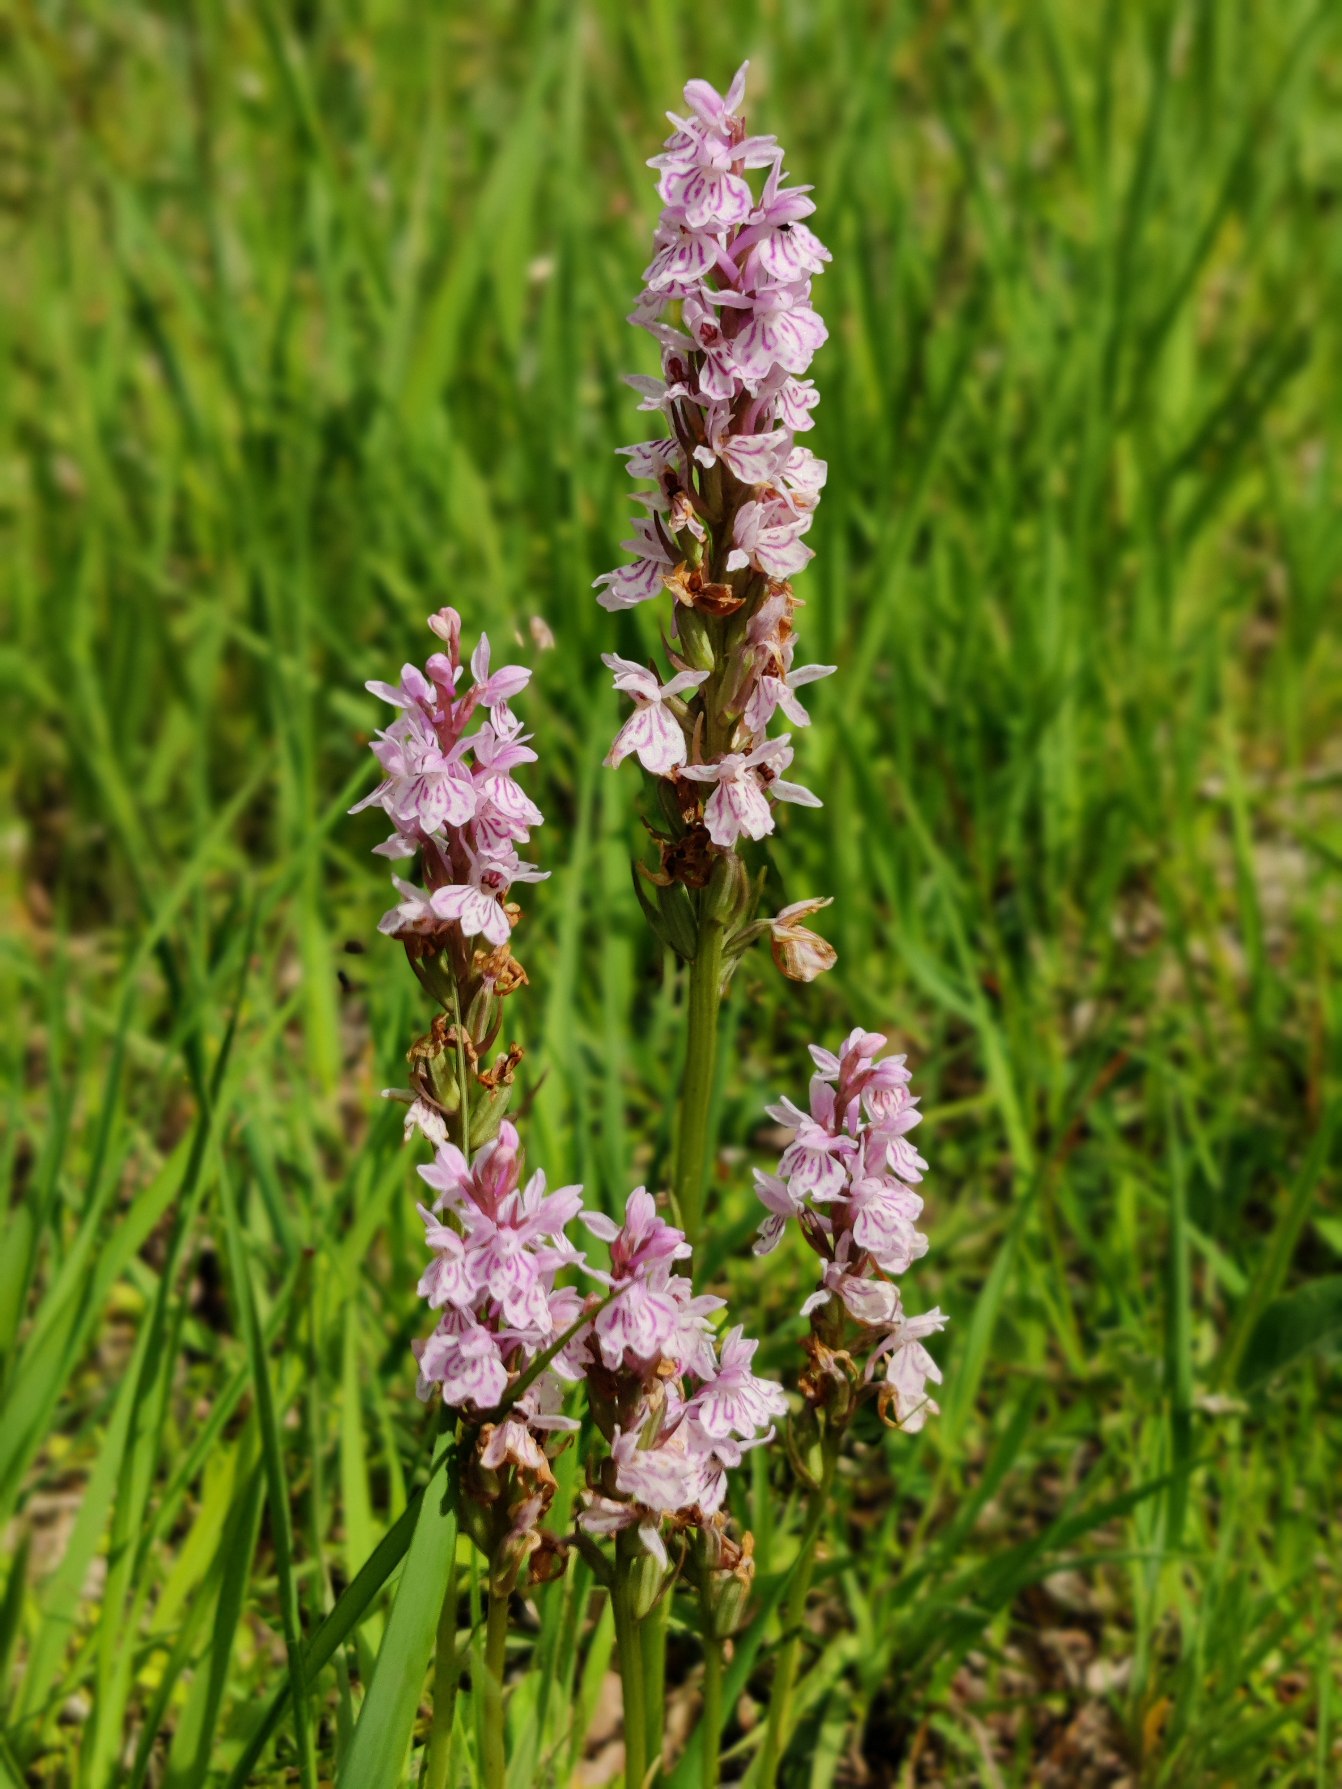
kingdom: Plantae
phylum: Tracheophyta
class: Liliopsida
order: Asparagales
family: Orchidaceae
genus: Dactylorhiza
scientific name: Dactylorhiza maculata
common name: Plettet gøgeurt
